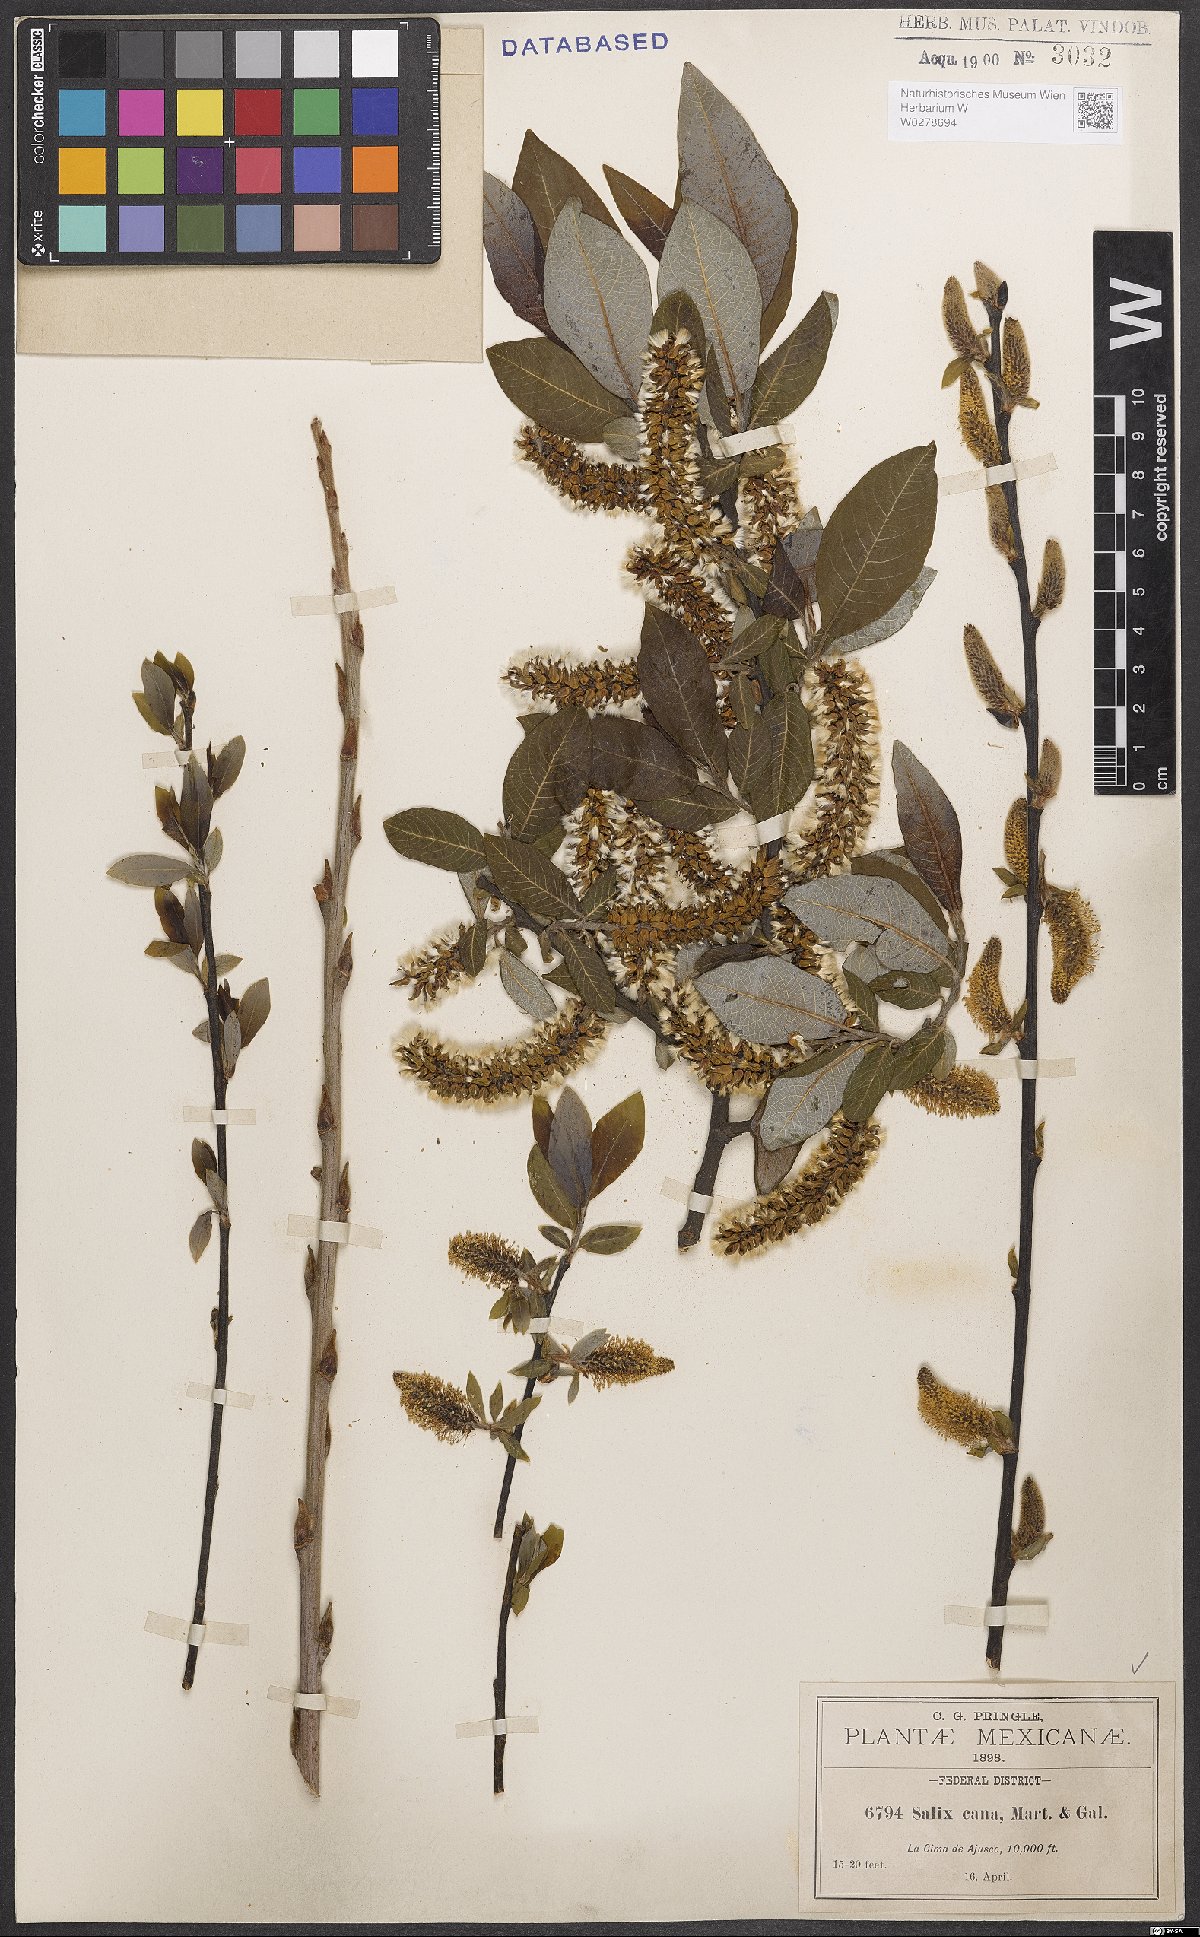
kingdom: Plantae
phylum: Tracheophyta
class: Magnoliopsida
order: Malpighiales
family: Salicaceae
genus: Salix
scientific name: Salix cana
